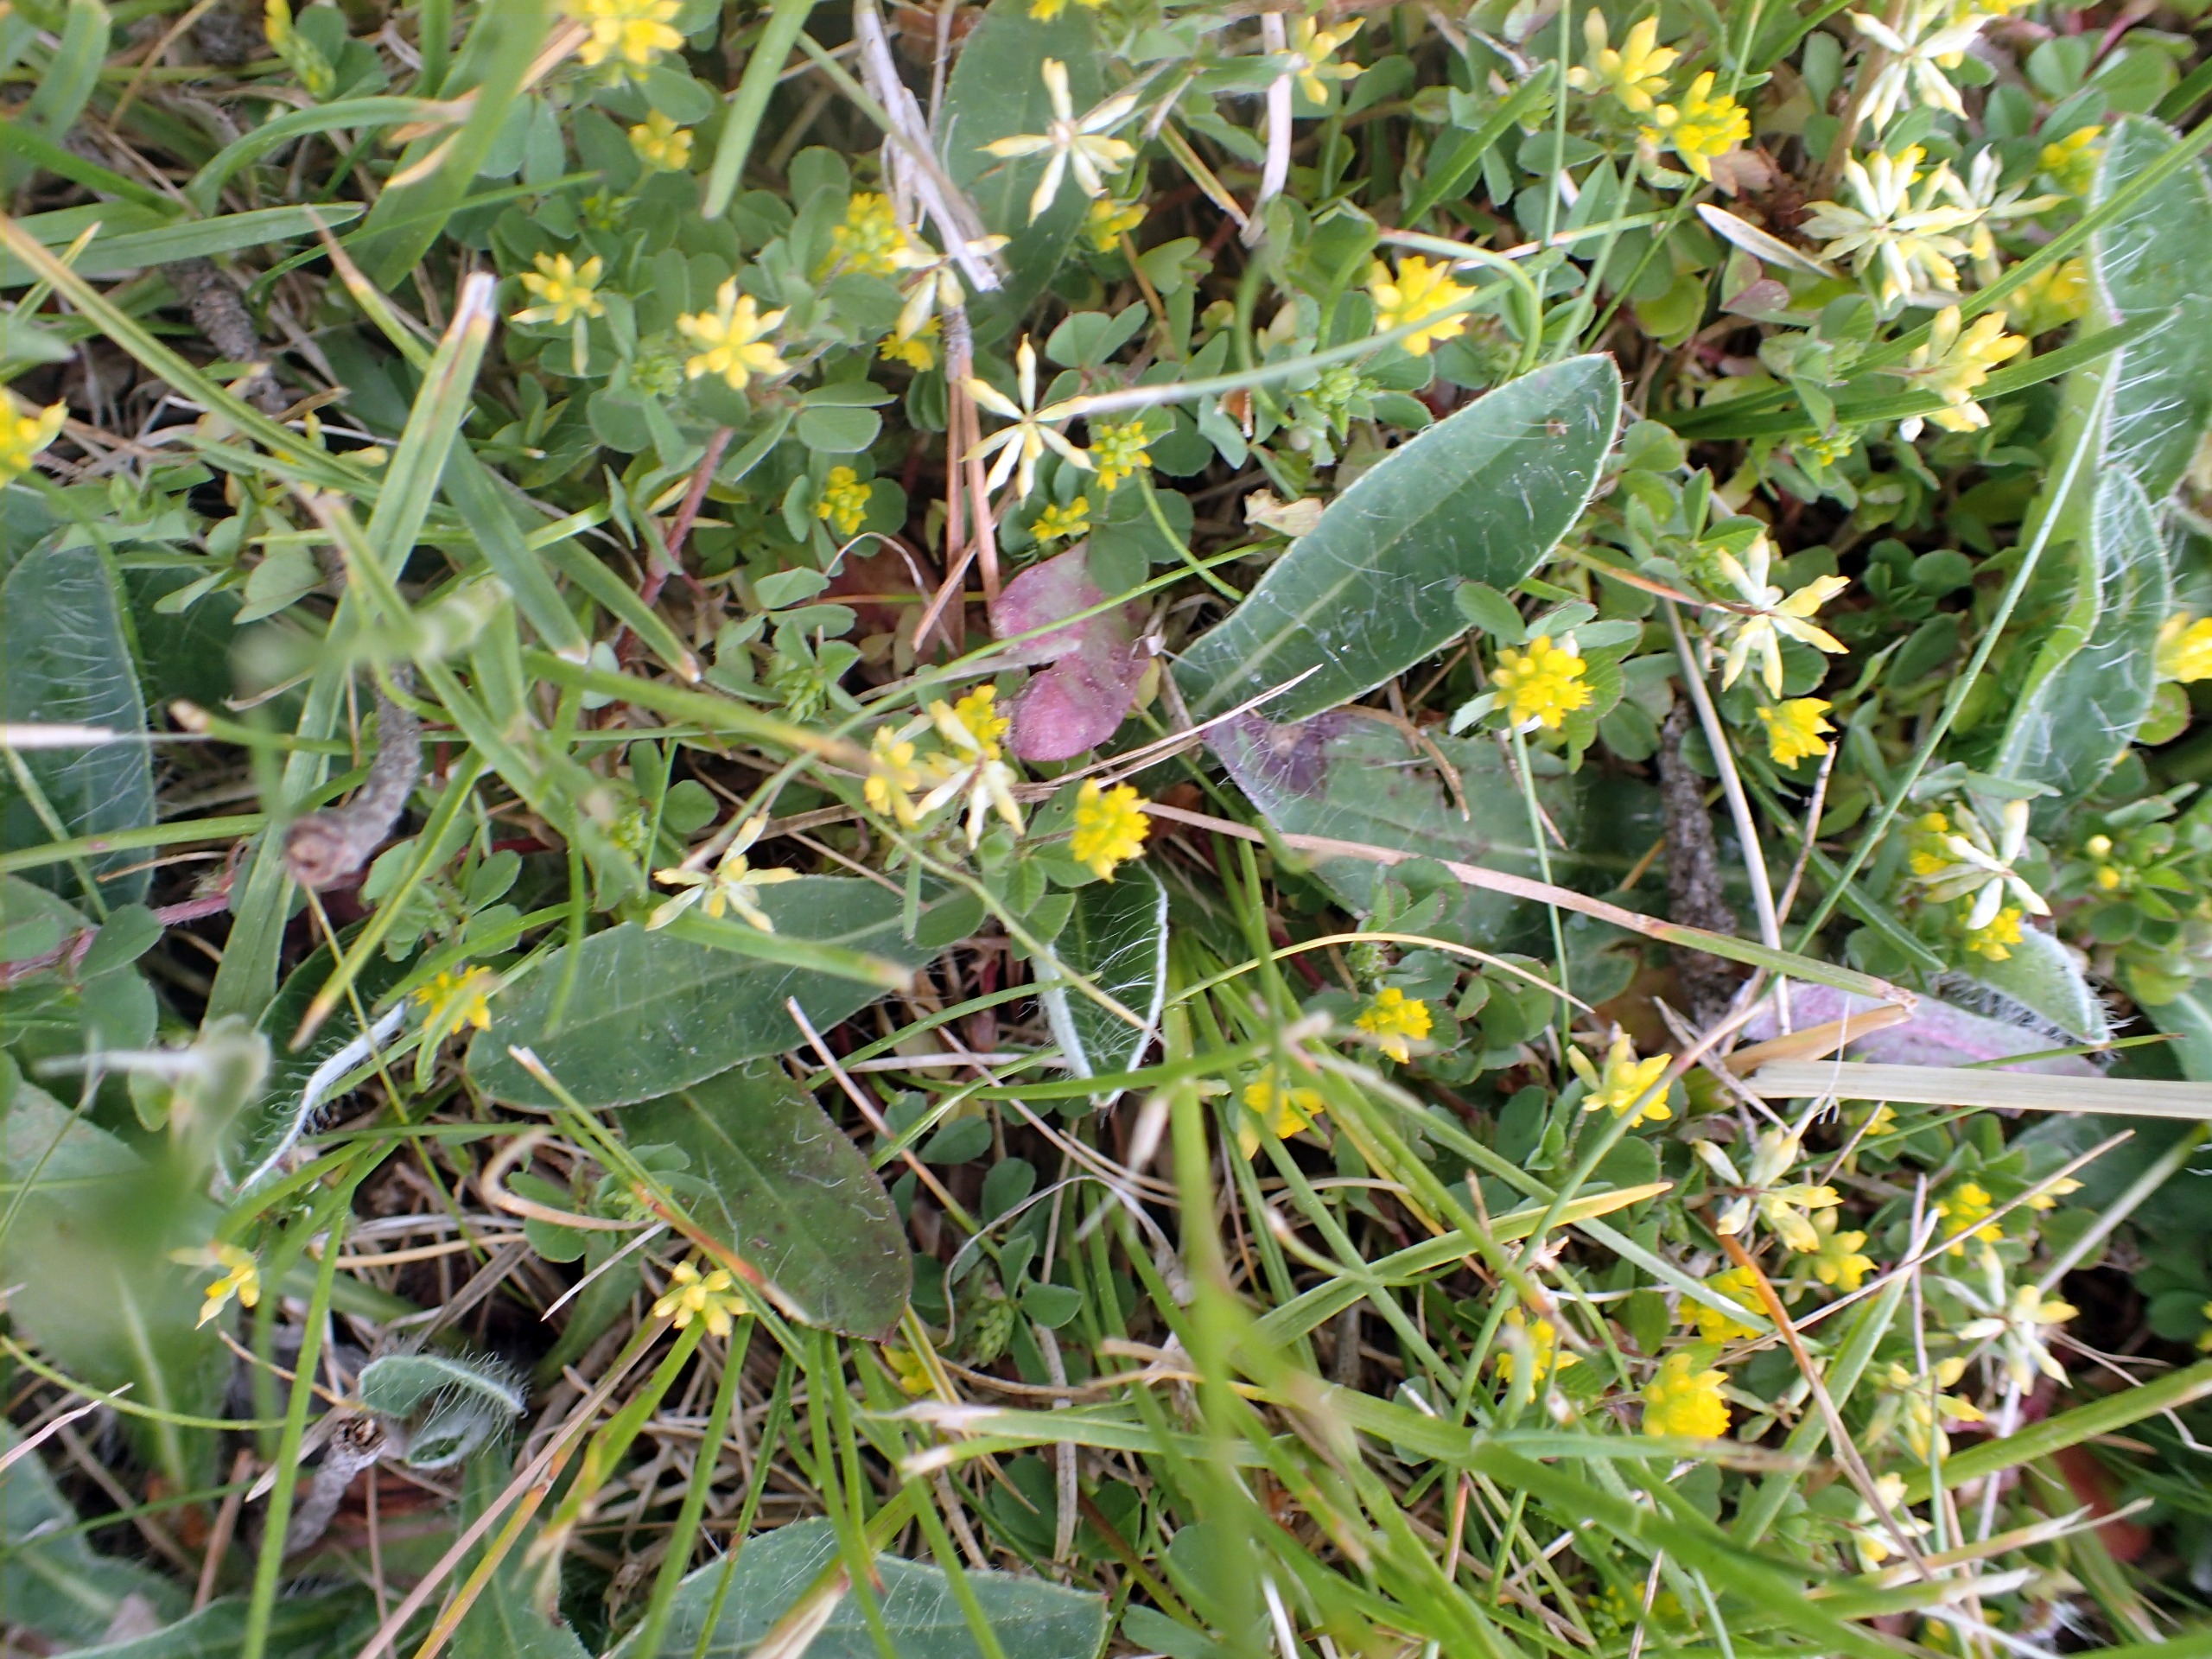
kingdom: Plantae
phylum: Tracheophyta
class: Magnoliopsida
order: Fabales
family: Fabaceae
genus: Trifolium
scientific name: Trifolium dubium
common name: Fin kløver
